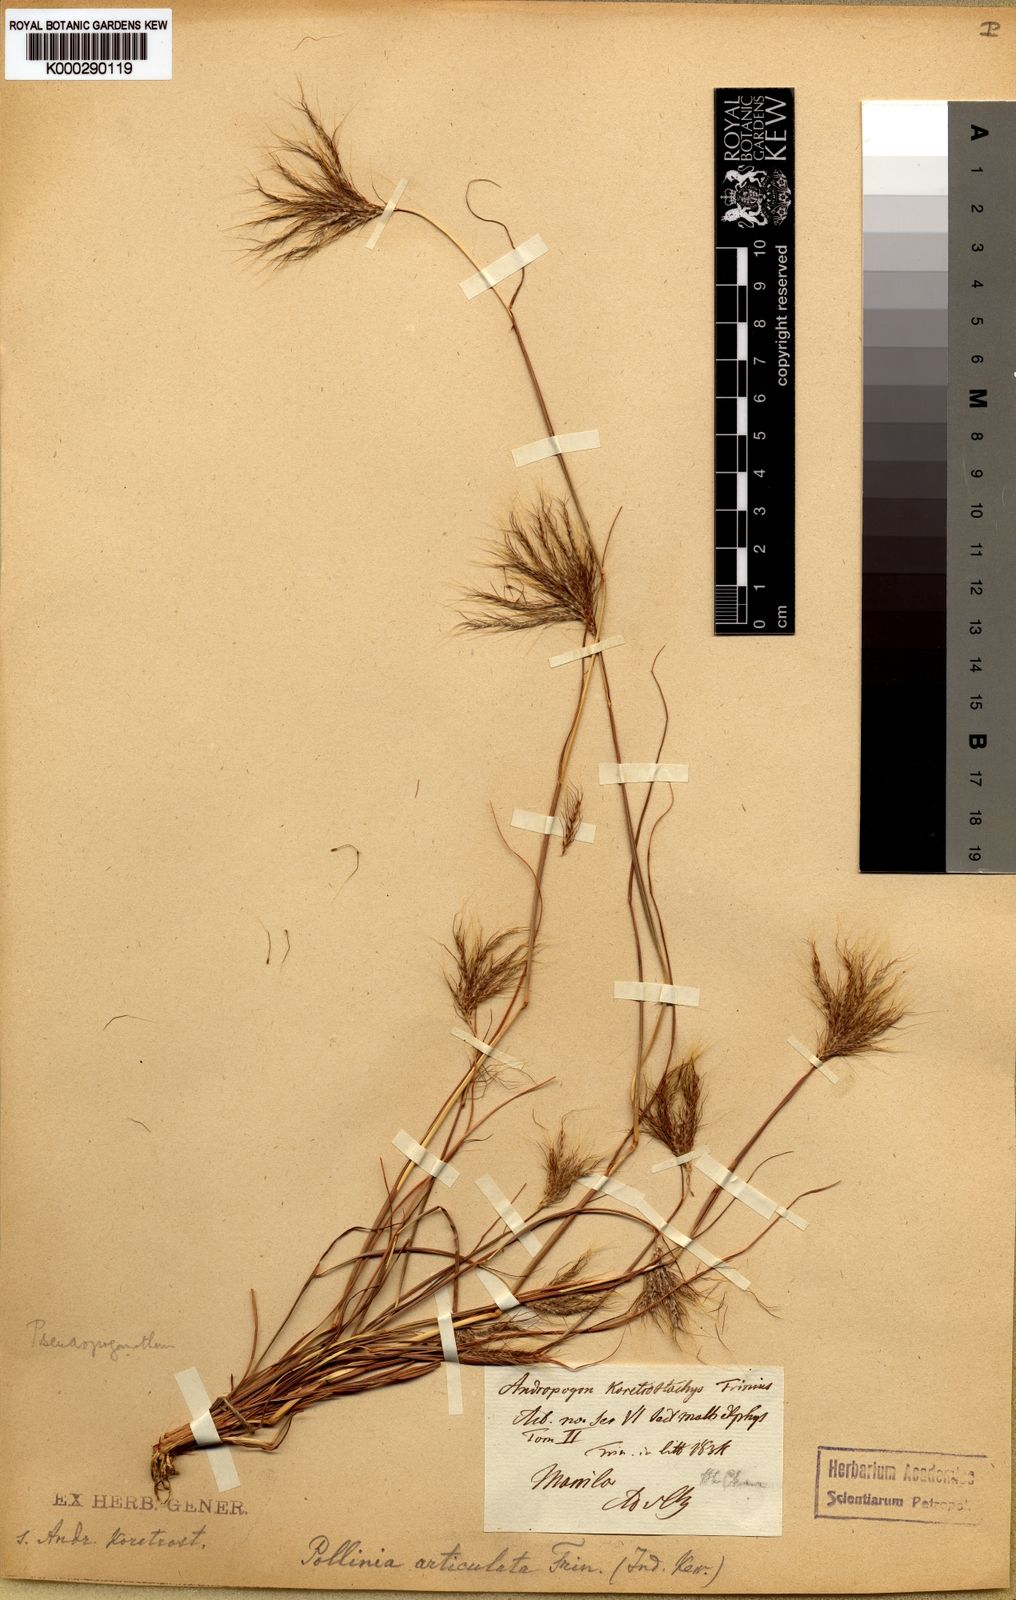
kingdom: Plantae
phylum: Tracheophyta
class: Liliopsida
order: Poales
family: Poaceae
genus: Pseudopogonatherum
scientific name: Pseudopogonatherum contortum
